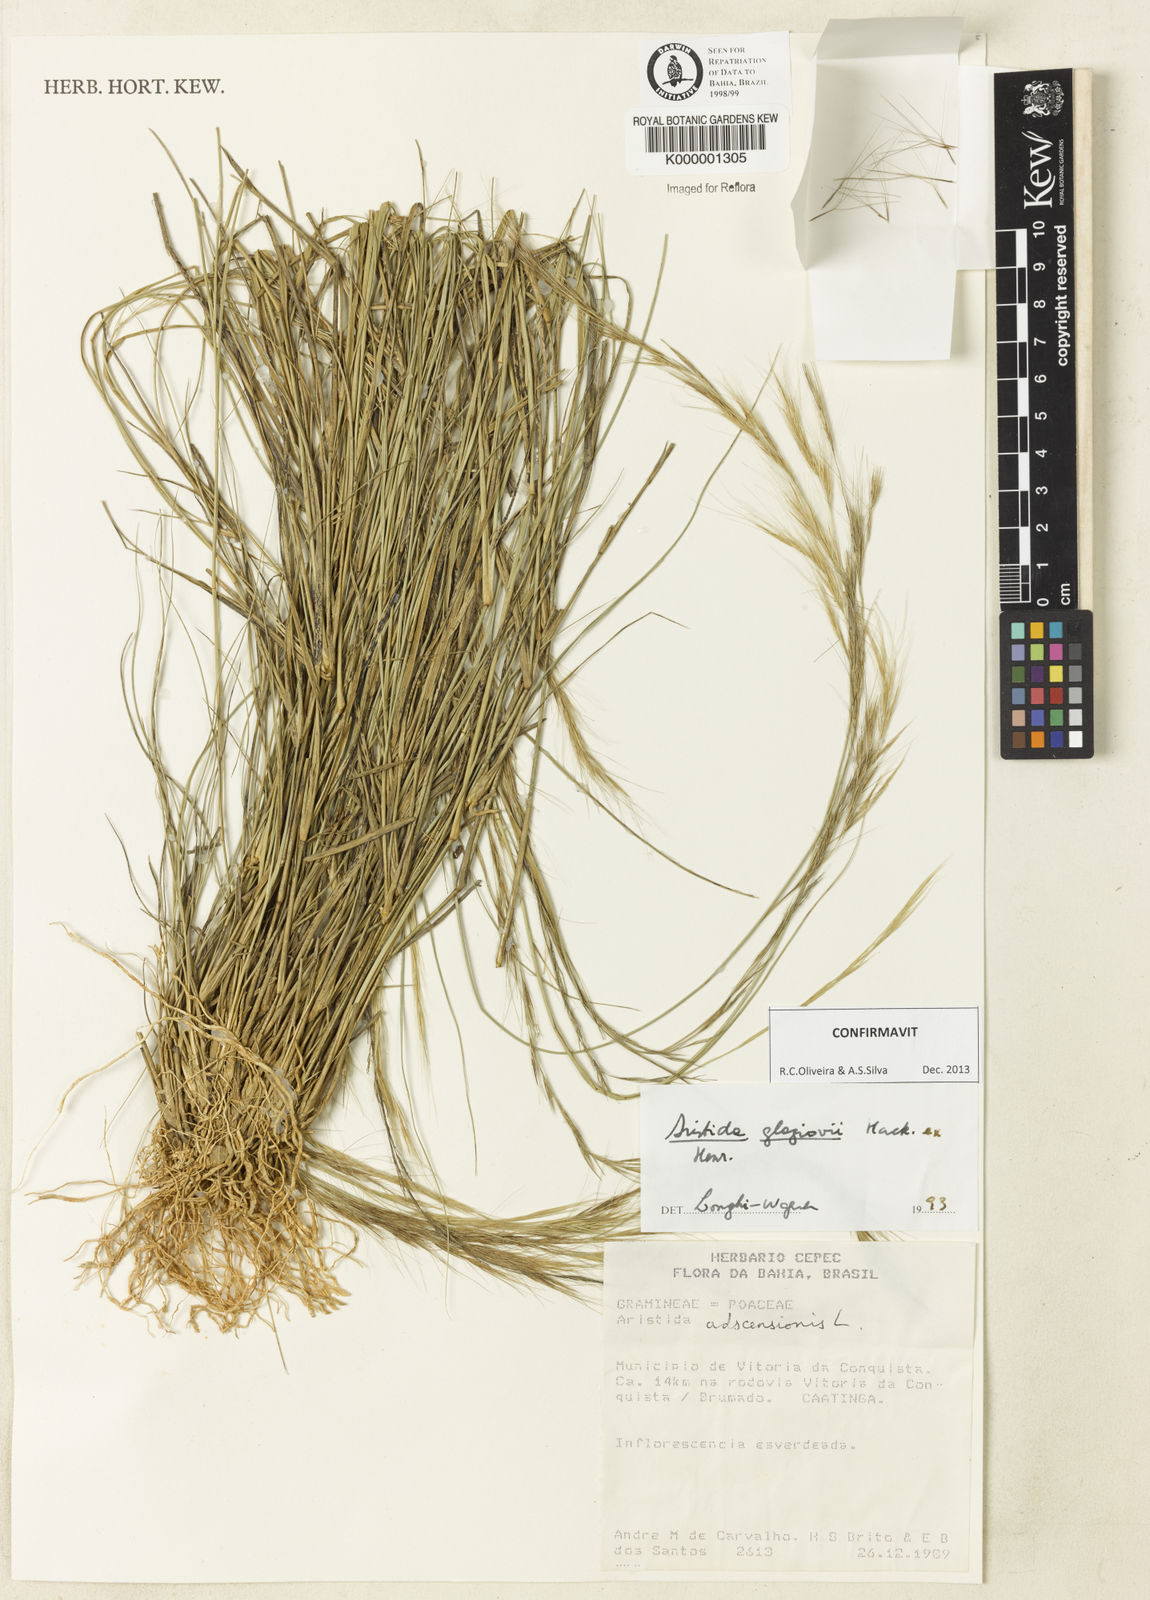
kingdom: Plantae
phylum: Tracheophyta
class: Liliopsida
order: Poales
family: Poaceae
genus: Aristida
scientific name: Aristida
